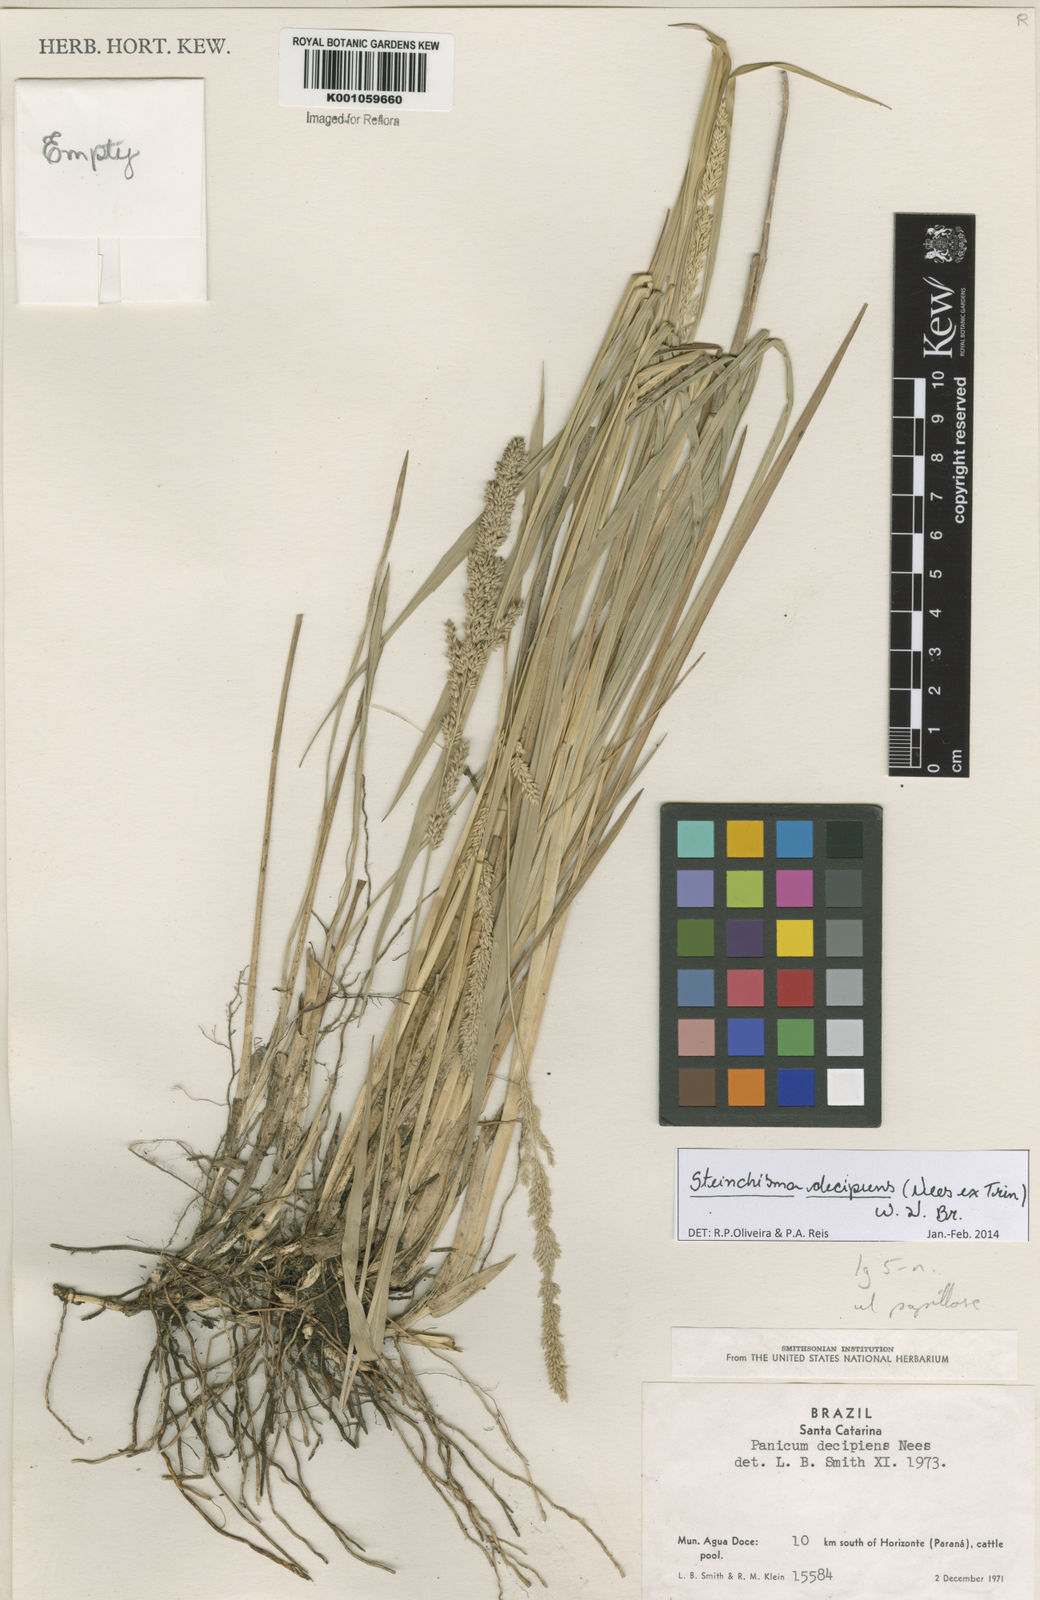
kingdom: Plantae
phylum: Tracheophyta
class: Liliopsida
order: Poales
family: Poaceae
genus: Steinchisma
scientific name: Steinchisma decipiens
